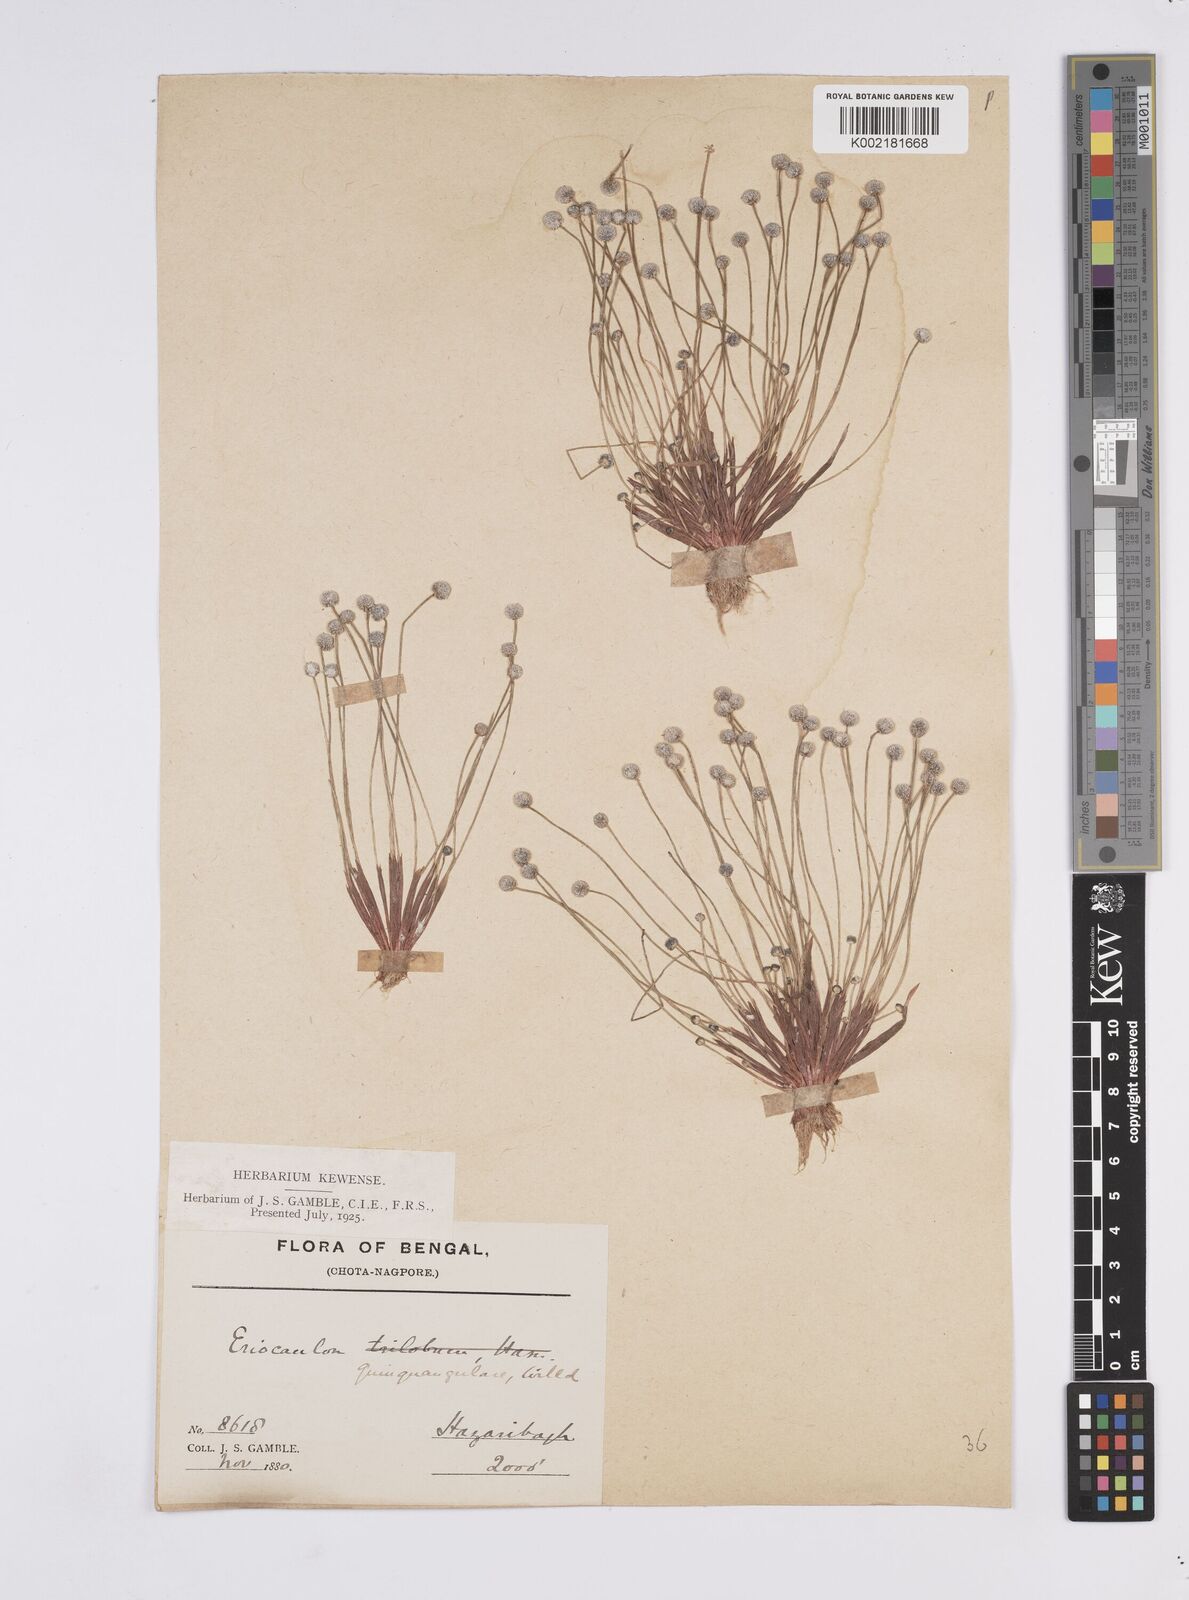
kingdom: Plantae
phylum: Tracheophyta
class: Liliopsida
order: Poales
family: Eriocaulaceae
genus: Eriocaulon
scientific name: Eriocaulon quinquangulare
